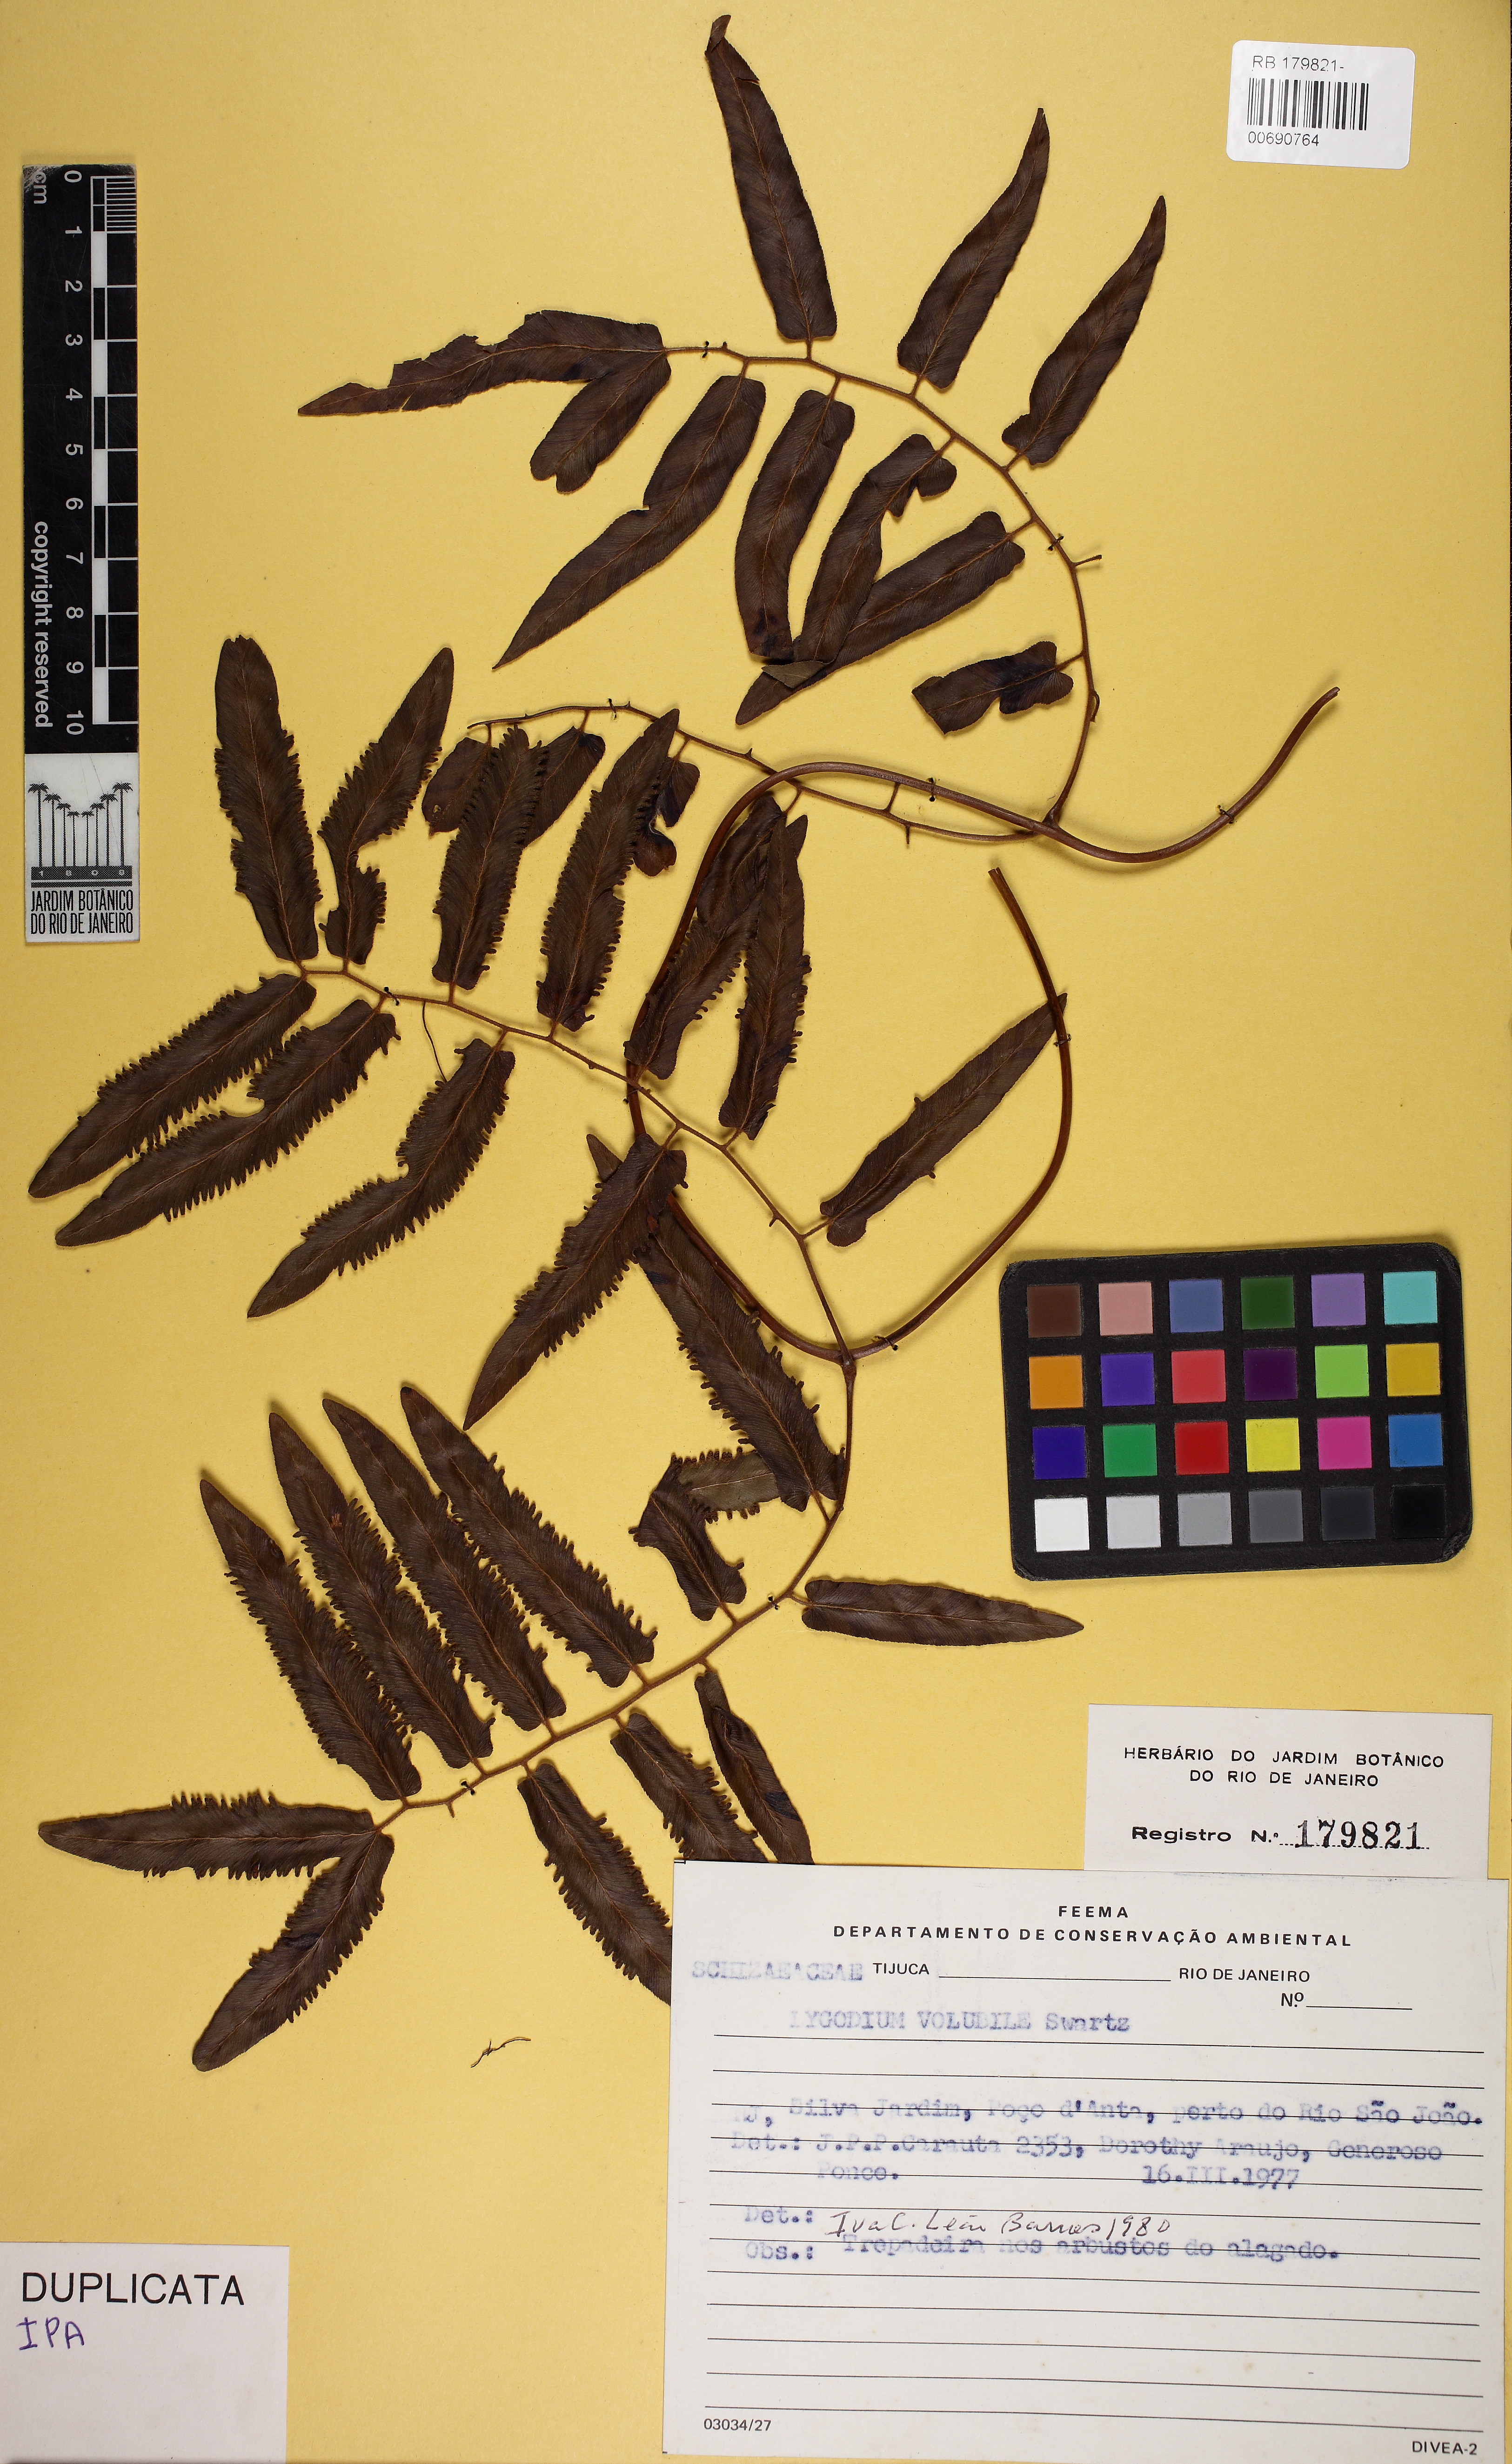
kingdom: Plantae
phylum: Tracheophyta
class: Polypodiopsida
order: Schizaeales
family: Lygodiaceae
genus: Lygodium
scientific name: Lygodium volubile
